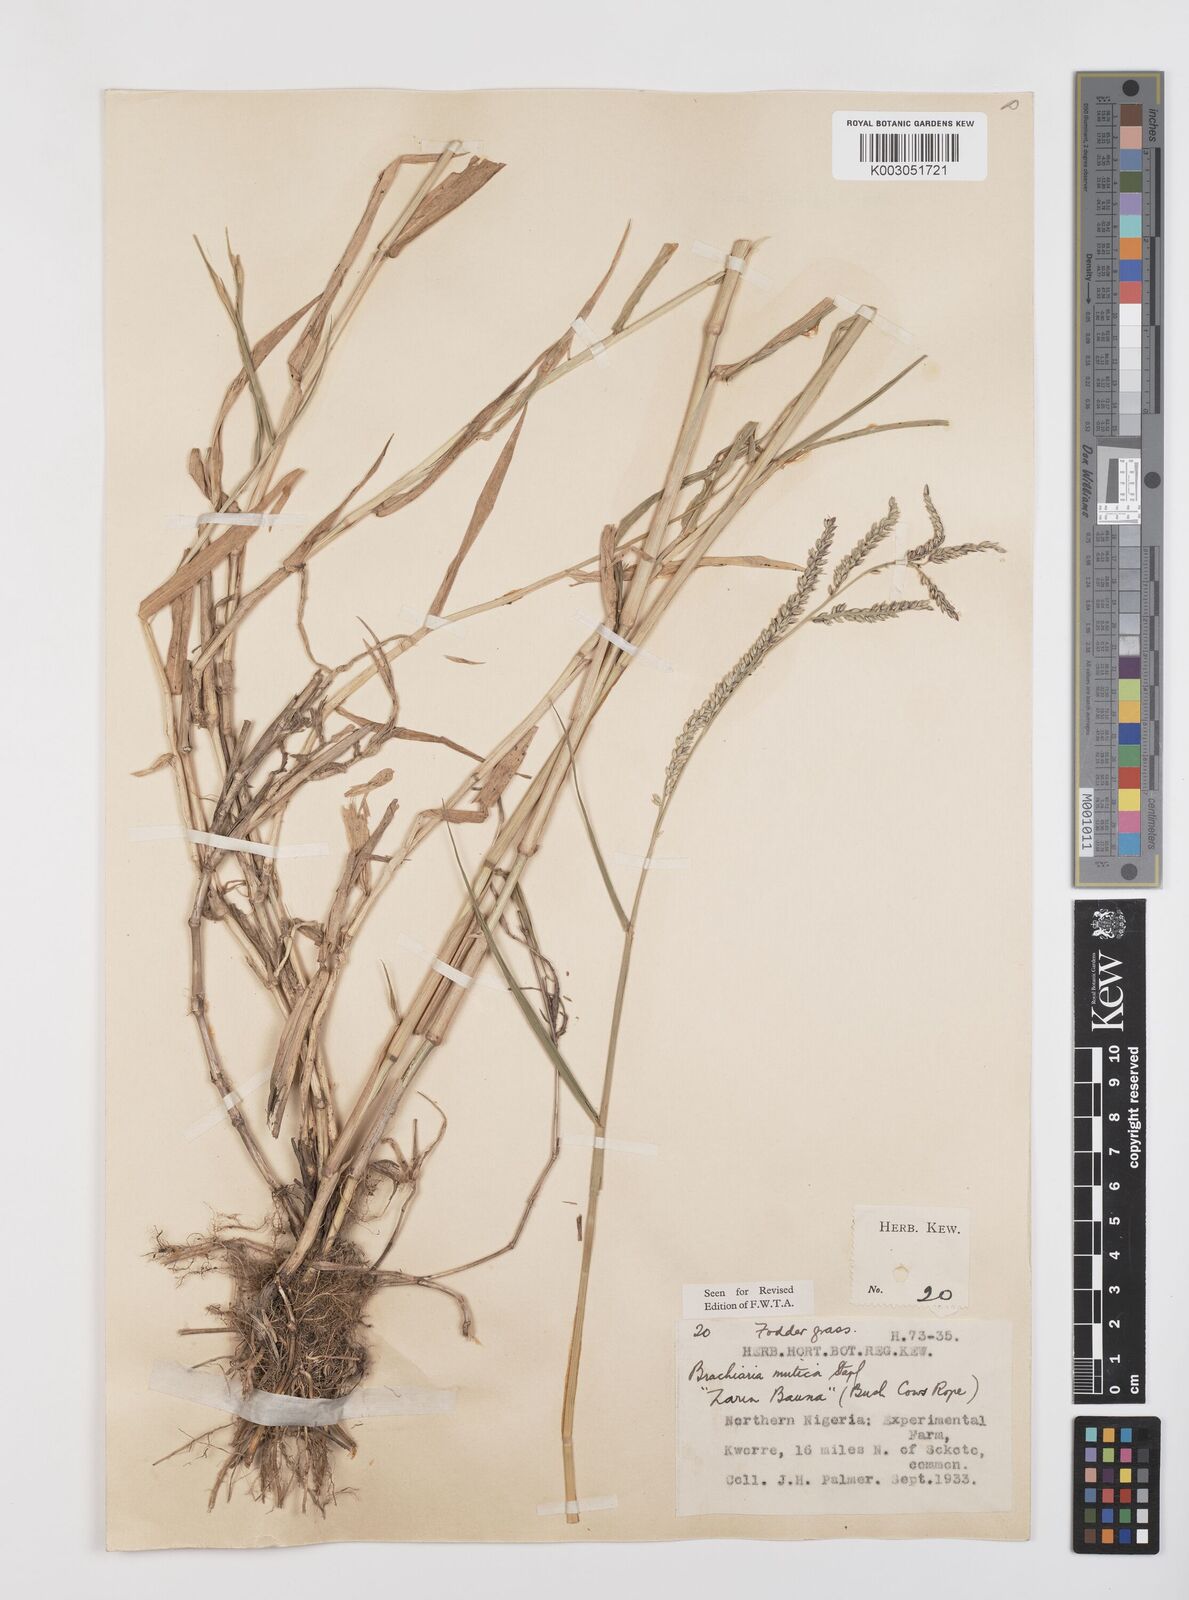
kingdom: Plantae
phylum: Tracheophyta
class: Liliopsida
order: Poales
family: Poaceae
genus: Urochloa
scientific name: Urochloa mutica
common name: Para grass
